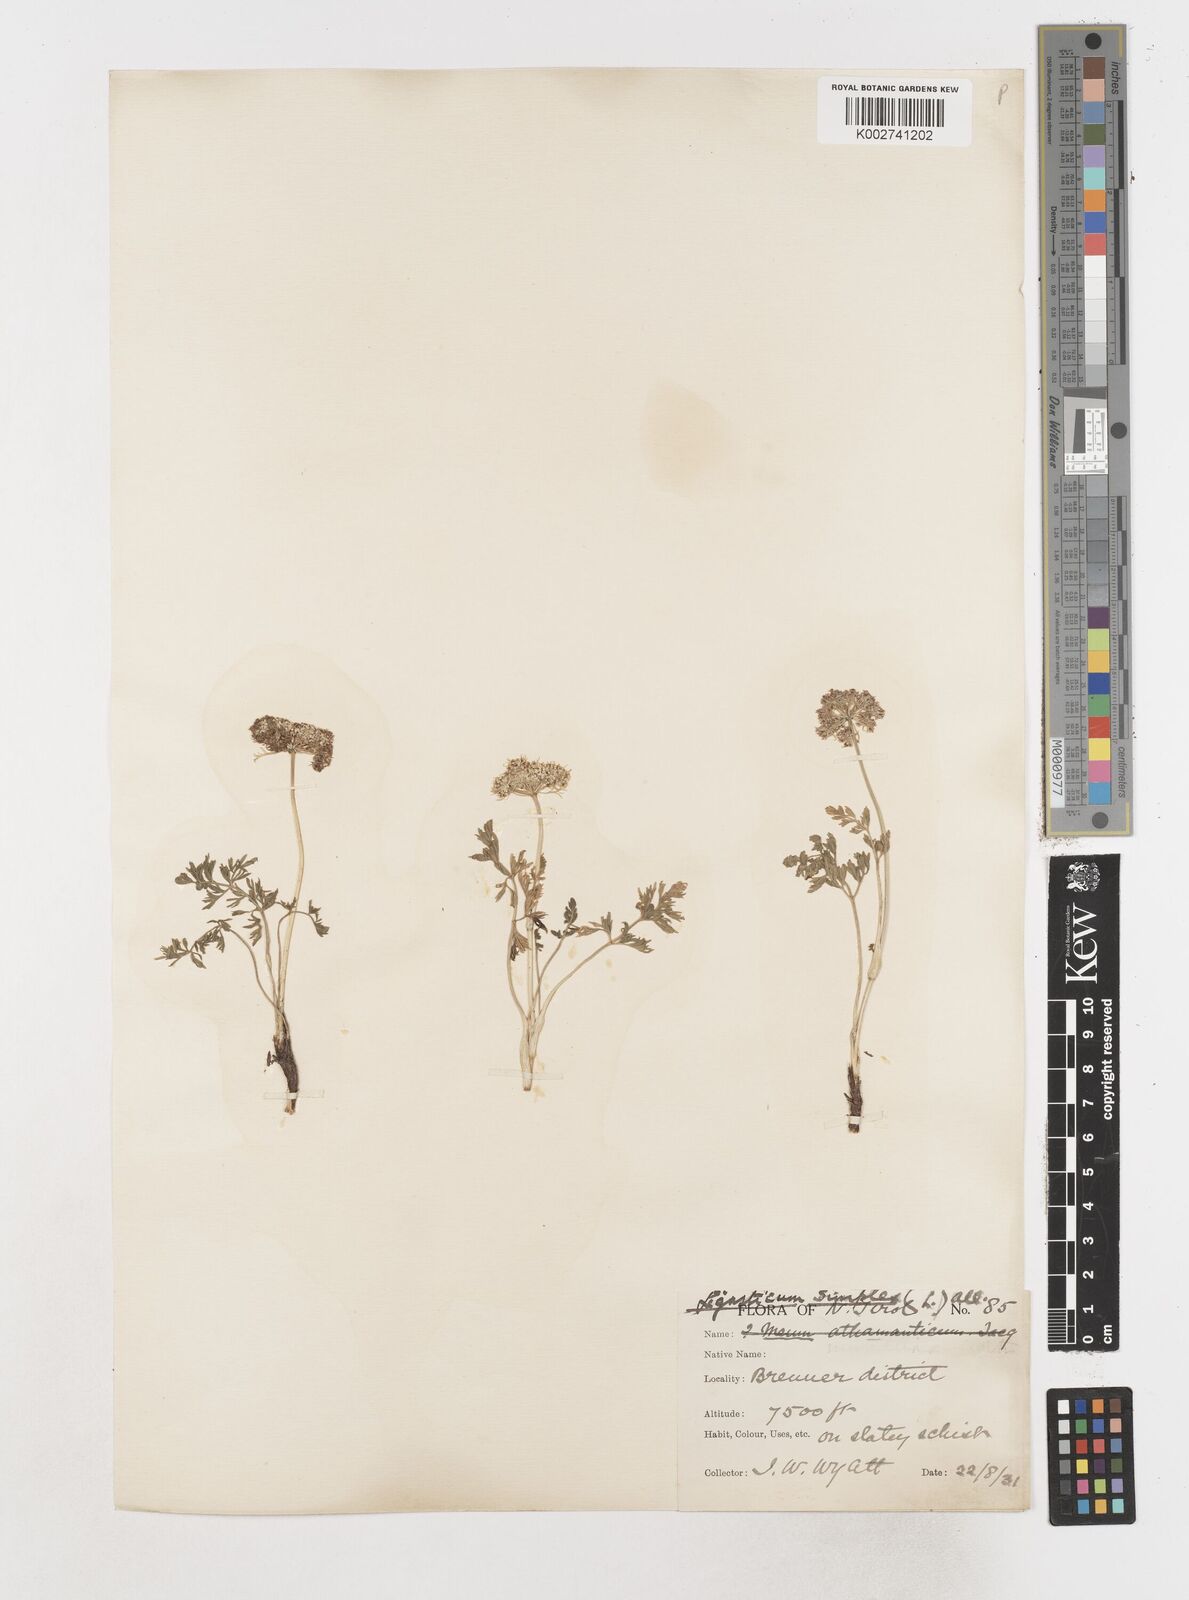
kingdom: Plantae
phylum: Tracheophyta
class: Magnoliopsida
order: Apiales
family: Apiaceae
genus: Pachypleurum
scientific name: Pachypleurum mutellinoides
